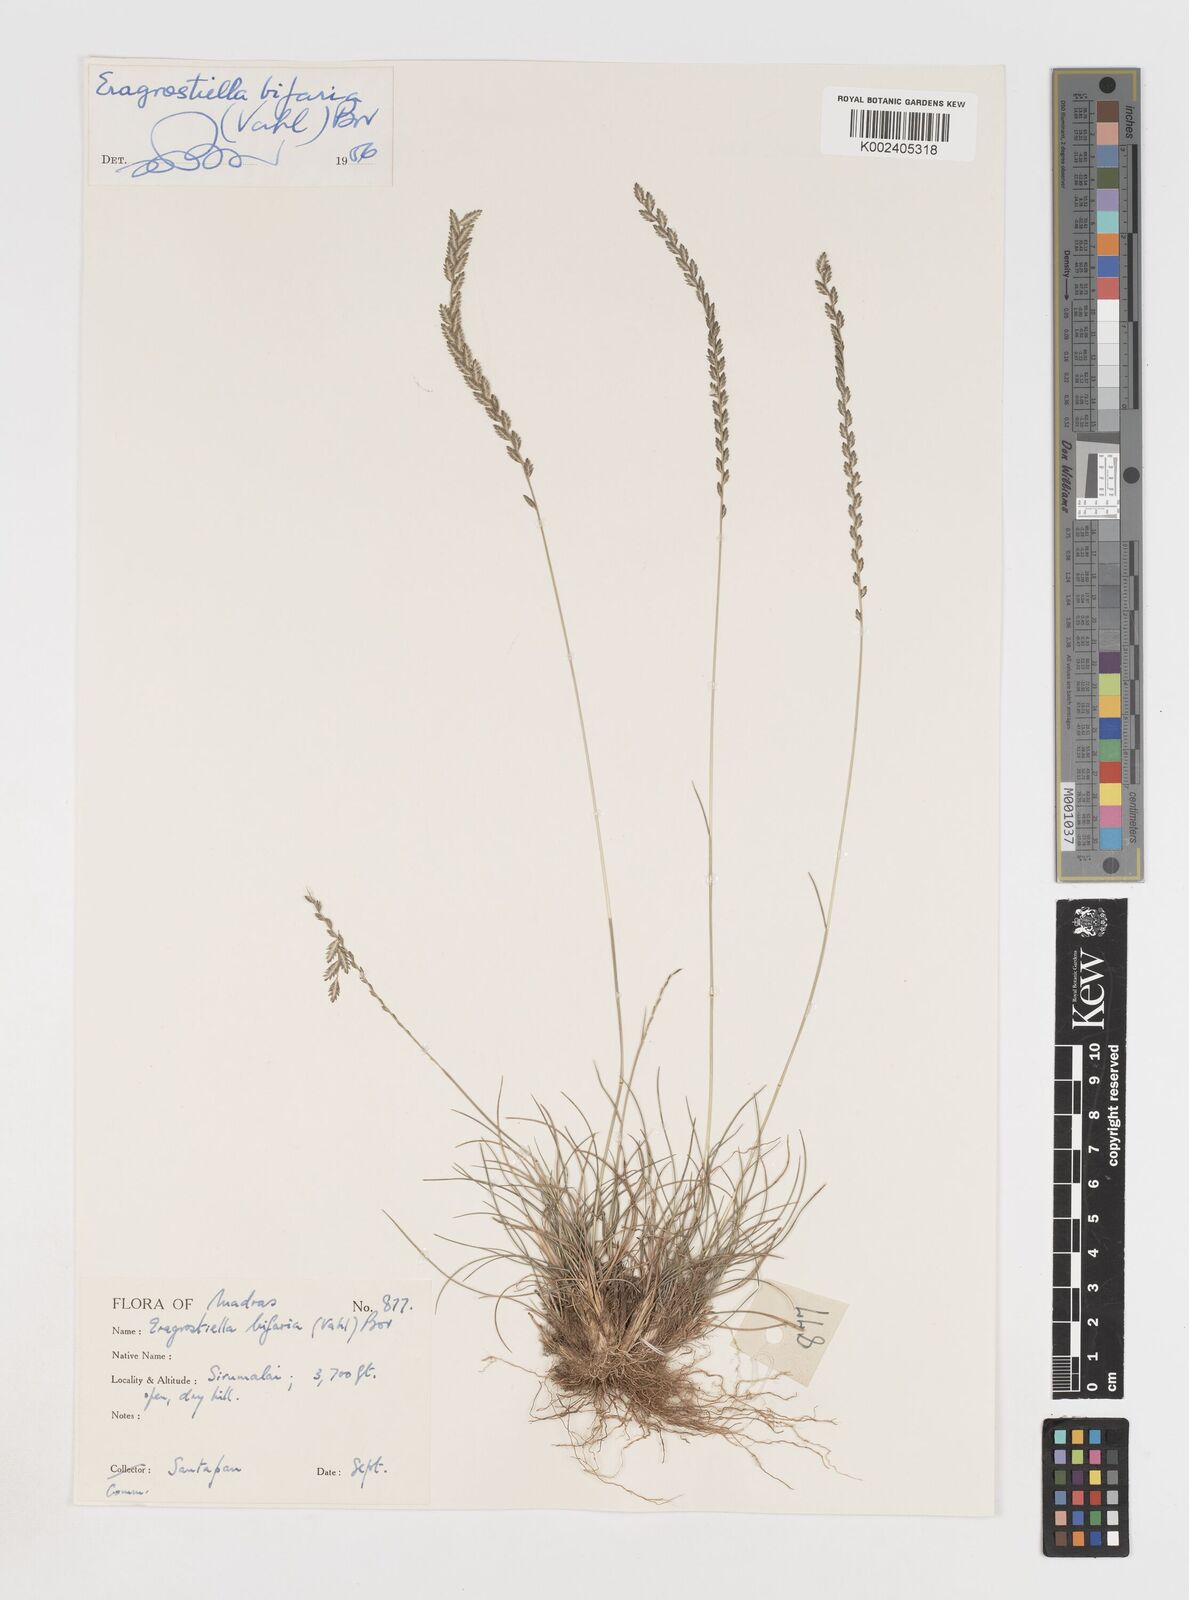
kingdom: Plantae
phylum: Tracheophyta
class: Liliopsida
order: Poales
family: Poaceae
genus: Eragrostiella
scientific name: Eragrostiella bifaria
